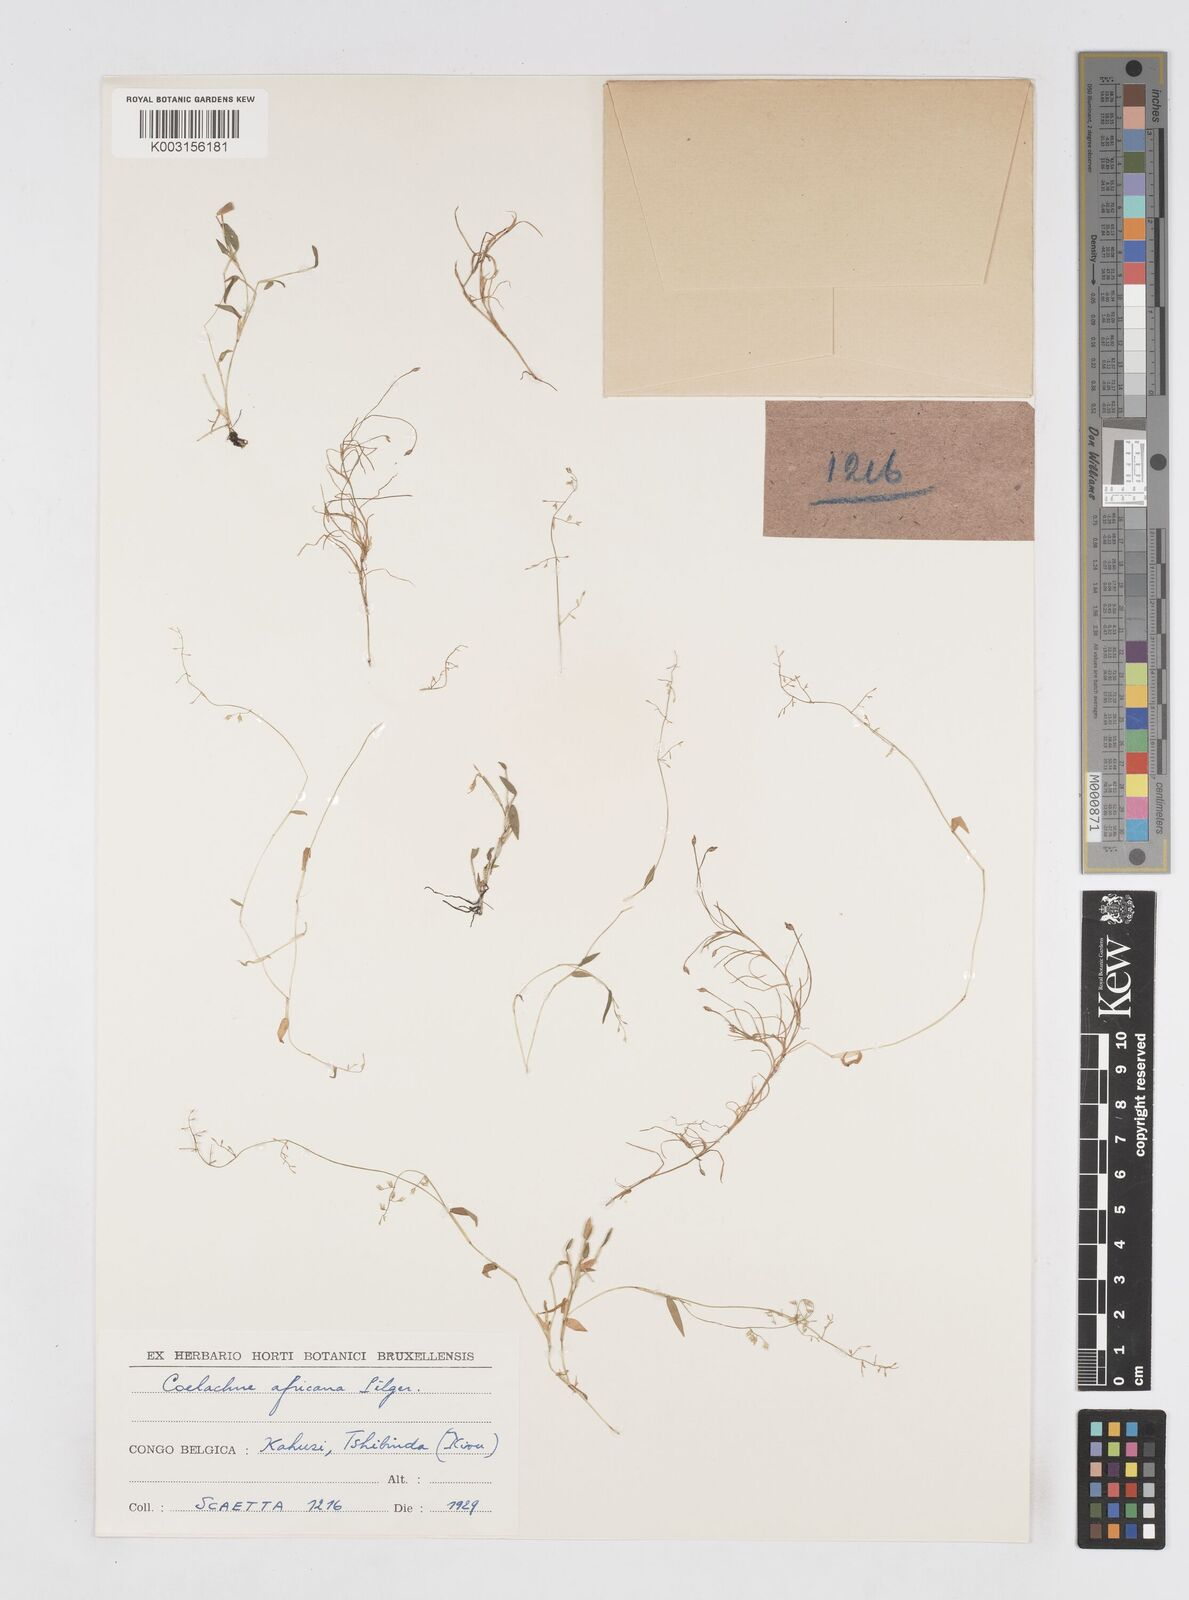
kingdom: Plantae
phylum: Tracheophyta
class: Liliopsida
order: Poales
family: Poaceae
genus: Coelachne
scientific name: Coelachne africana
